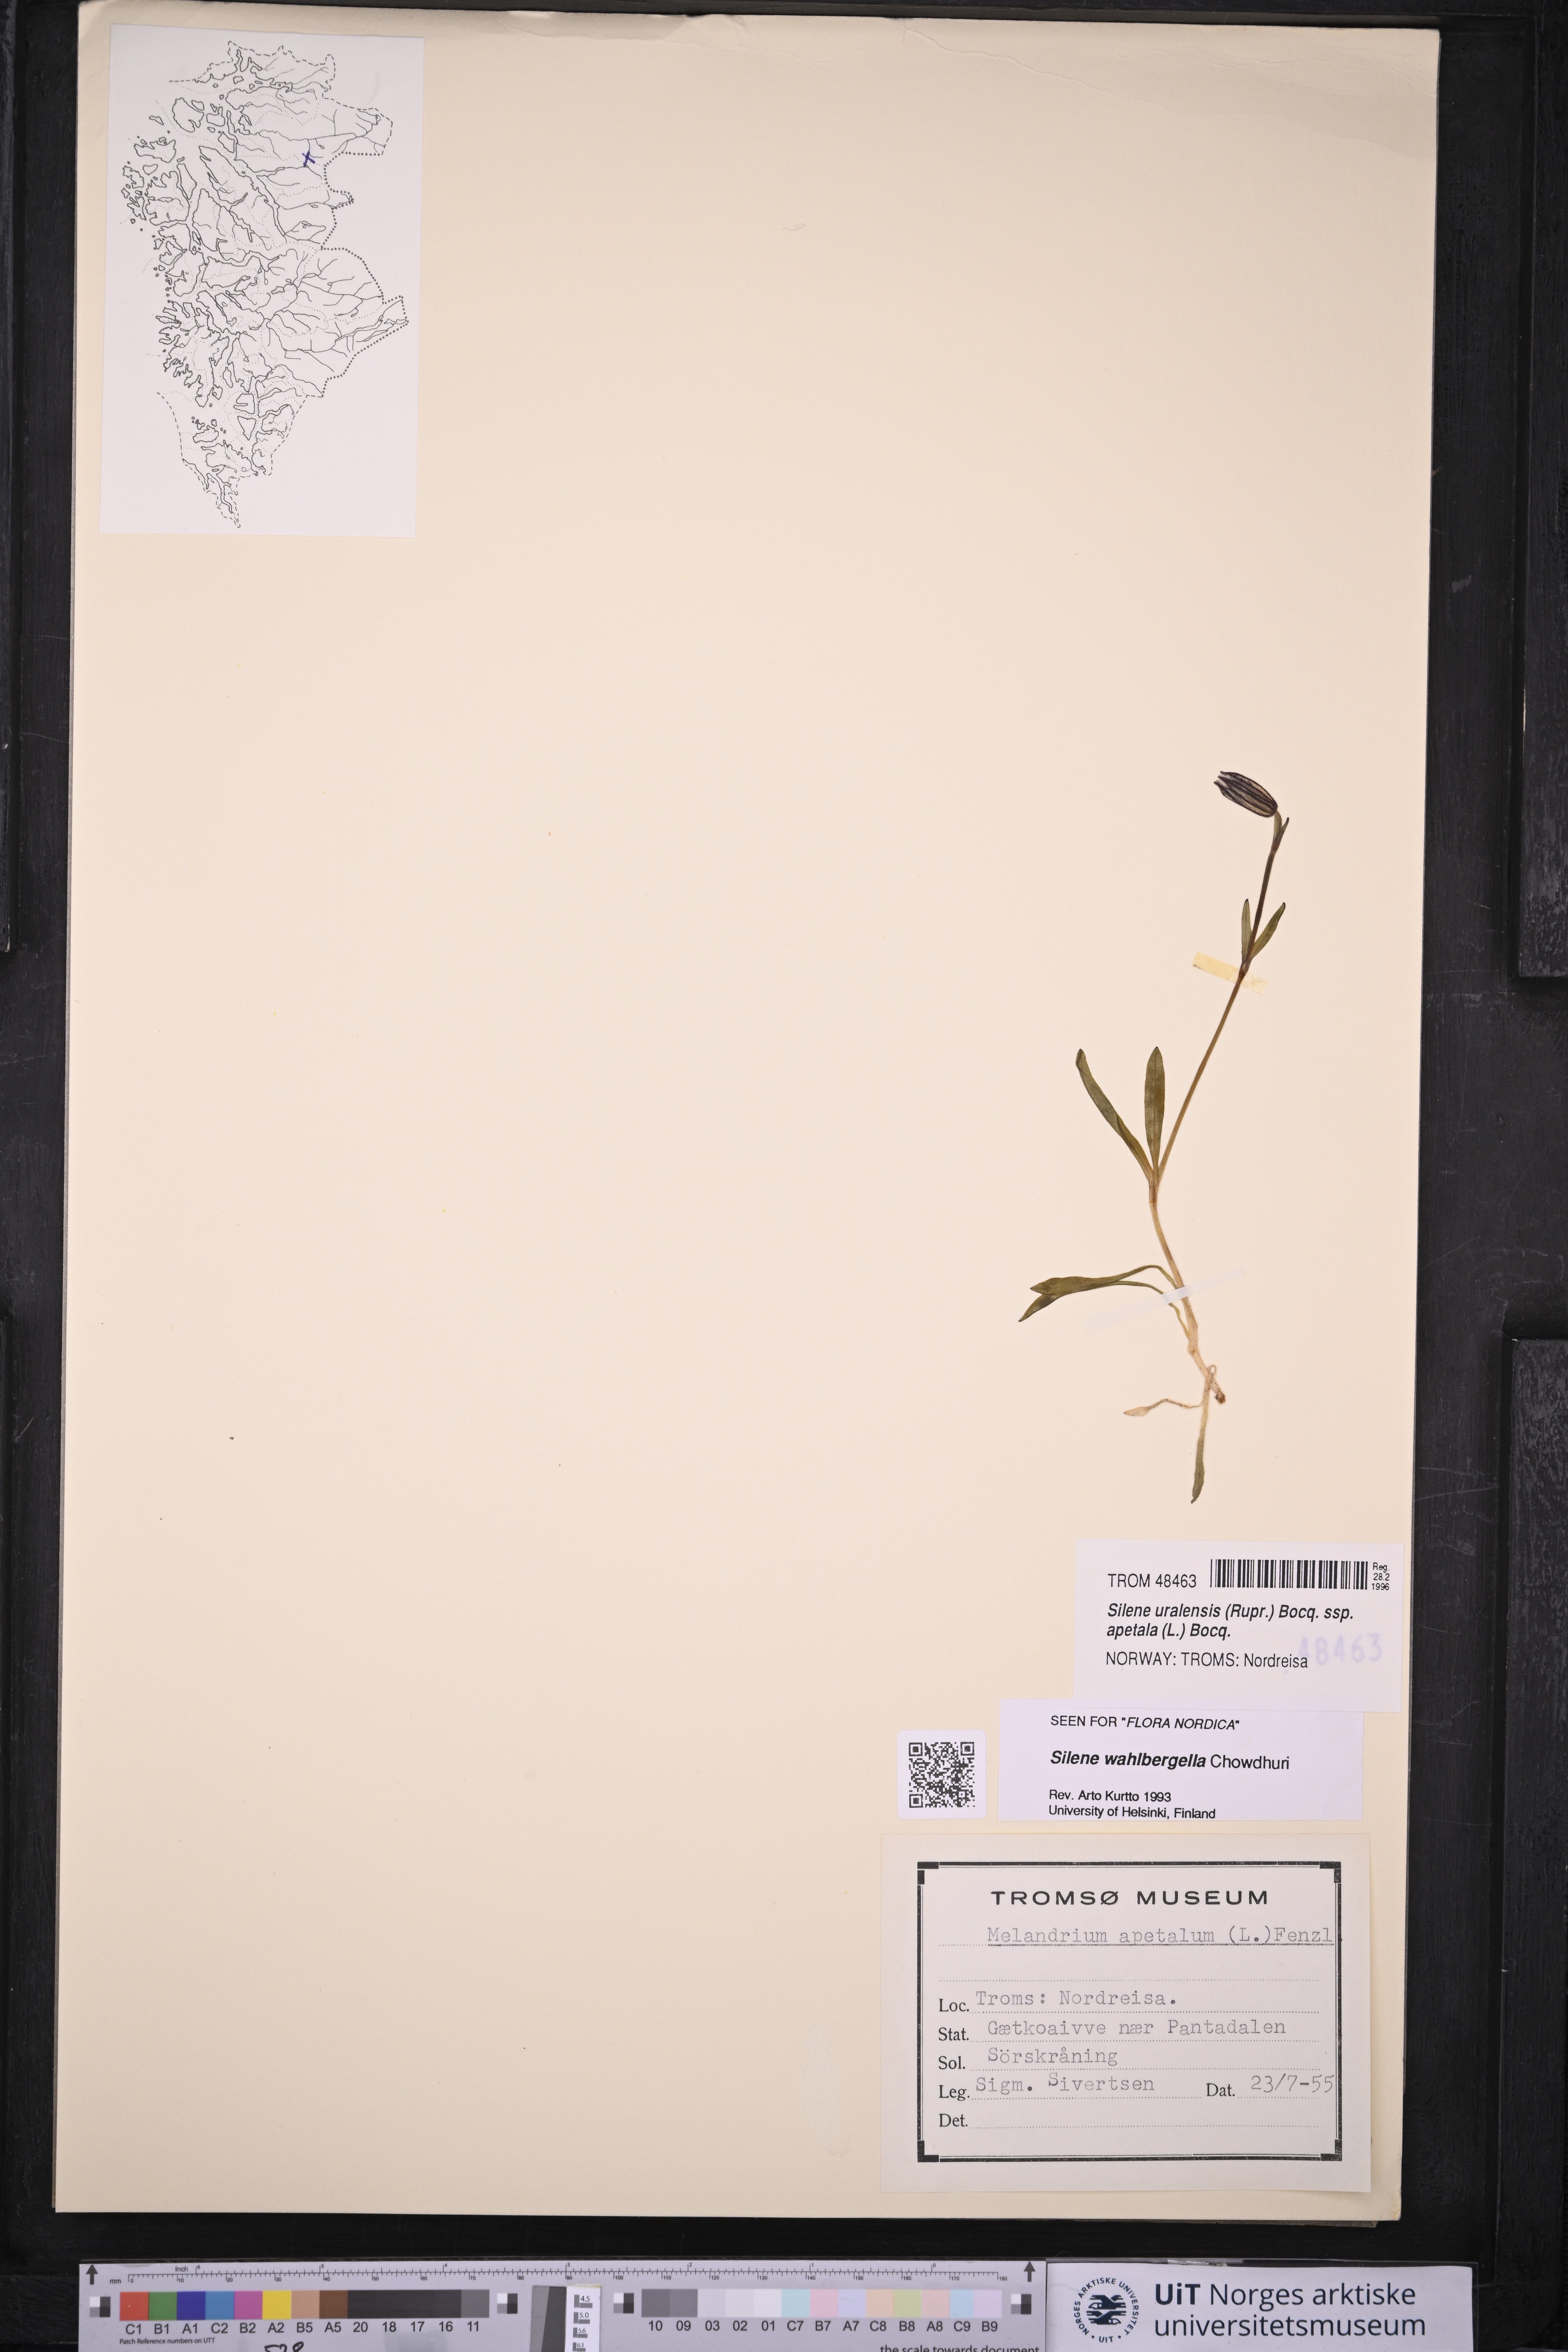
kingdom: Plantae
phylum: Tracheophyta
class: Magnoliopsida
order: Caryophyllales
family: Caryophyllaceae
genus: Silene
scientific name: Silene wahlbergella
